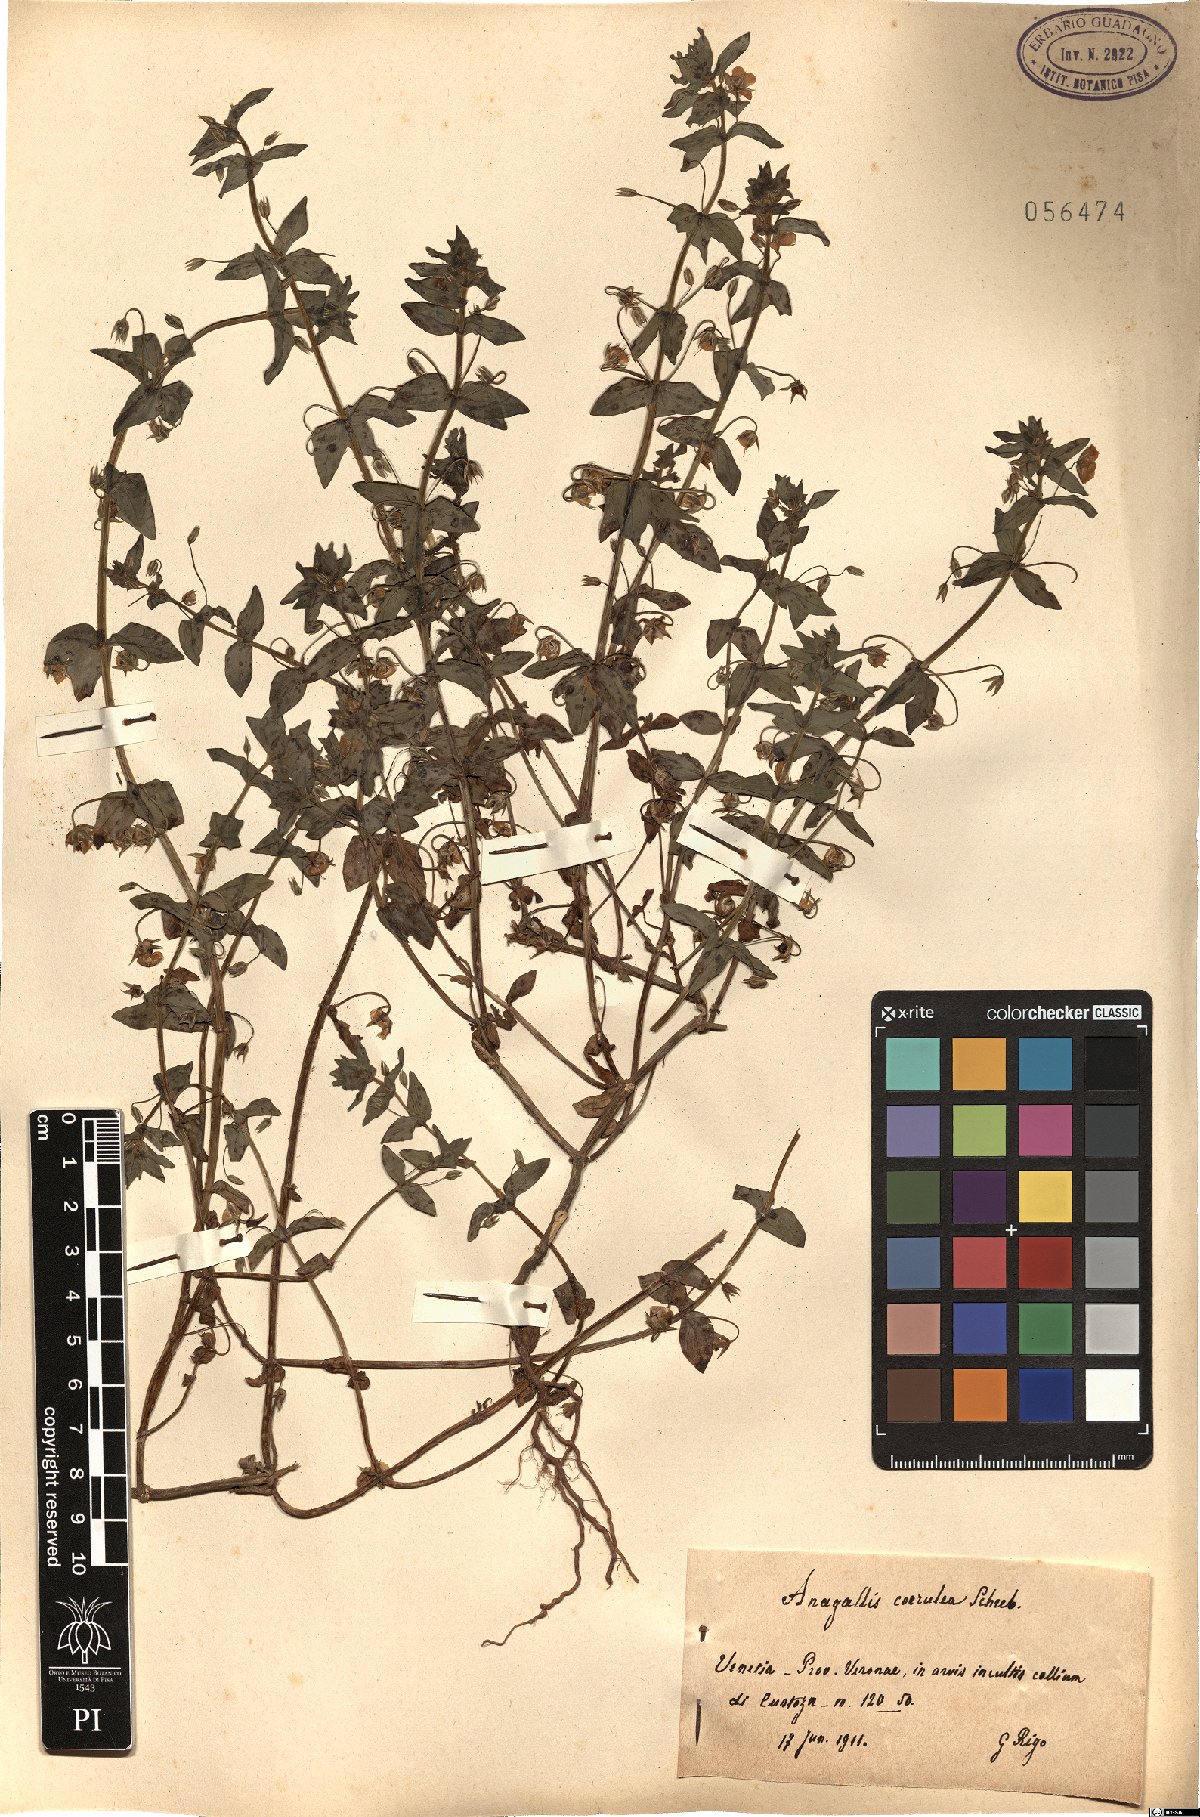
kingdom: Plantae
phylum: Tracheophyta
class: Magnoliopsida
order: Ericales
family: Primulaceae
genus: Lysimachia
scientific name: Lysimachia loeflingii
